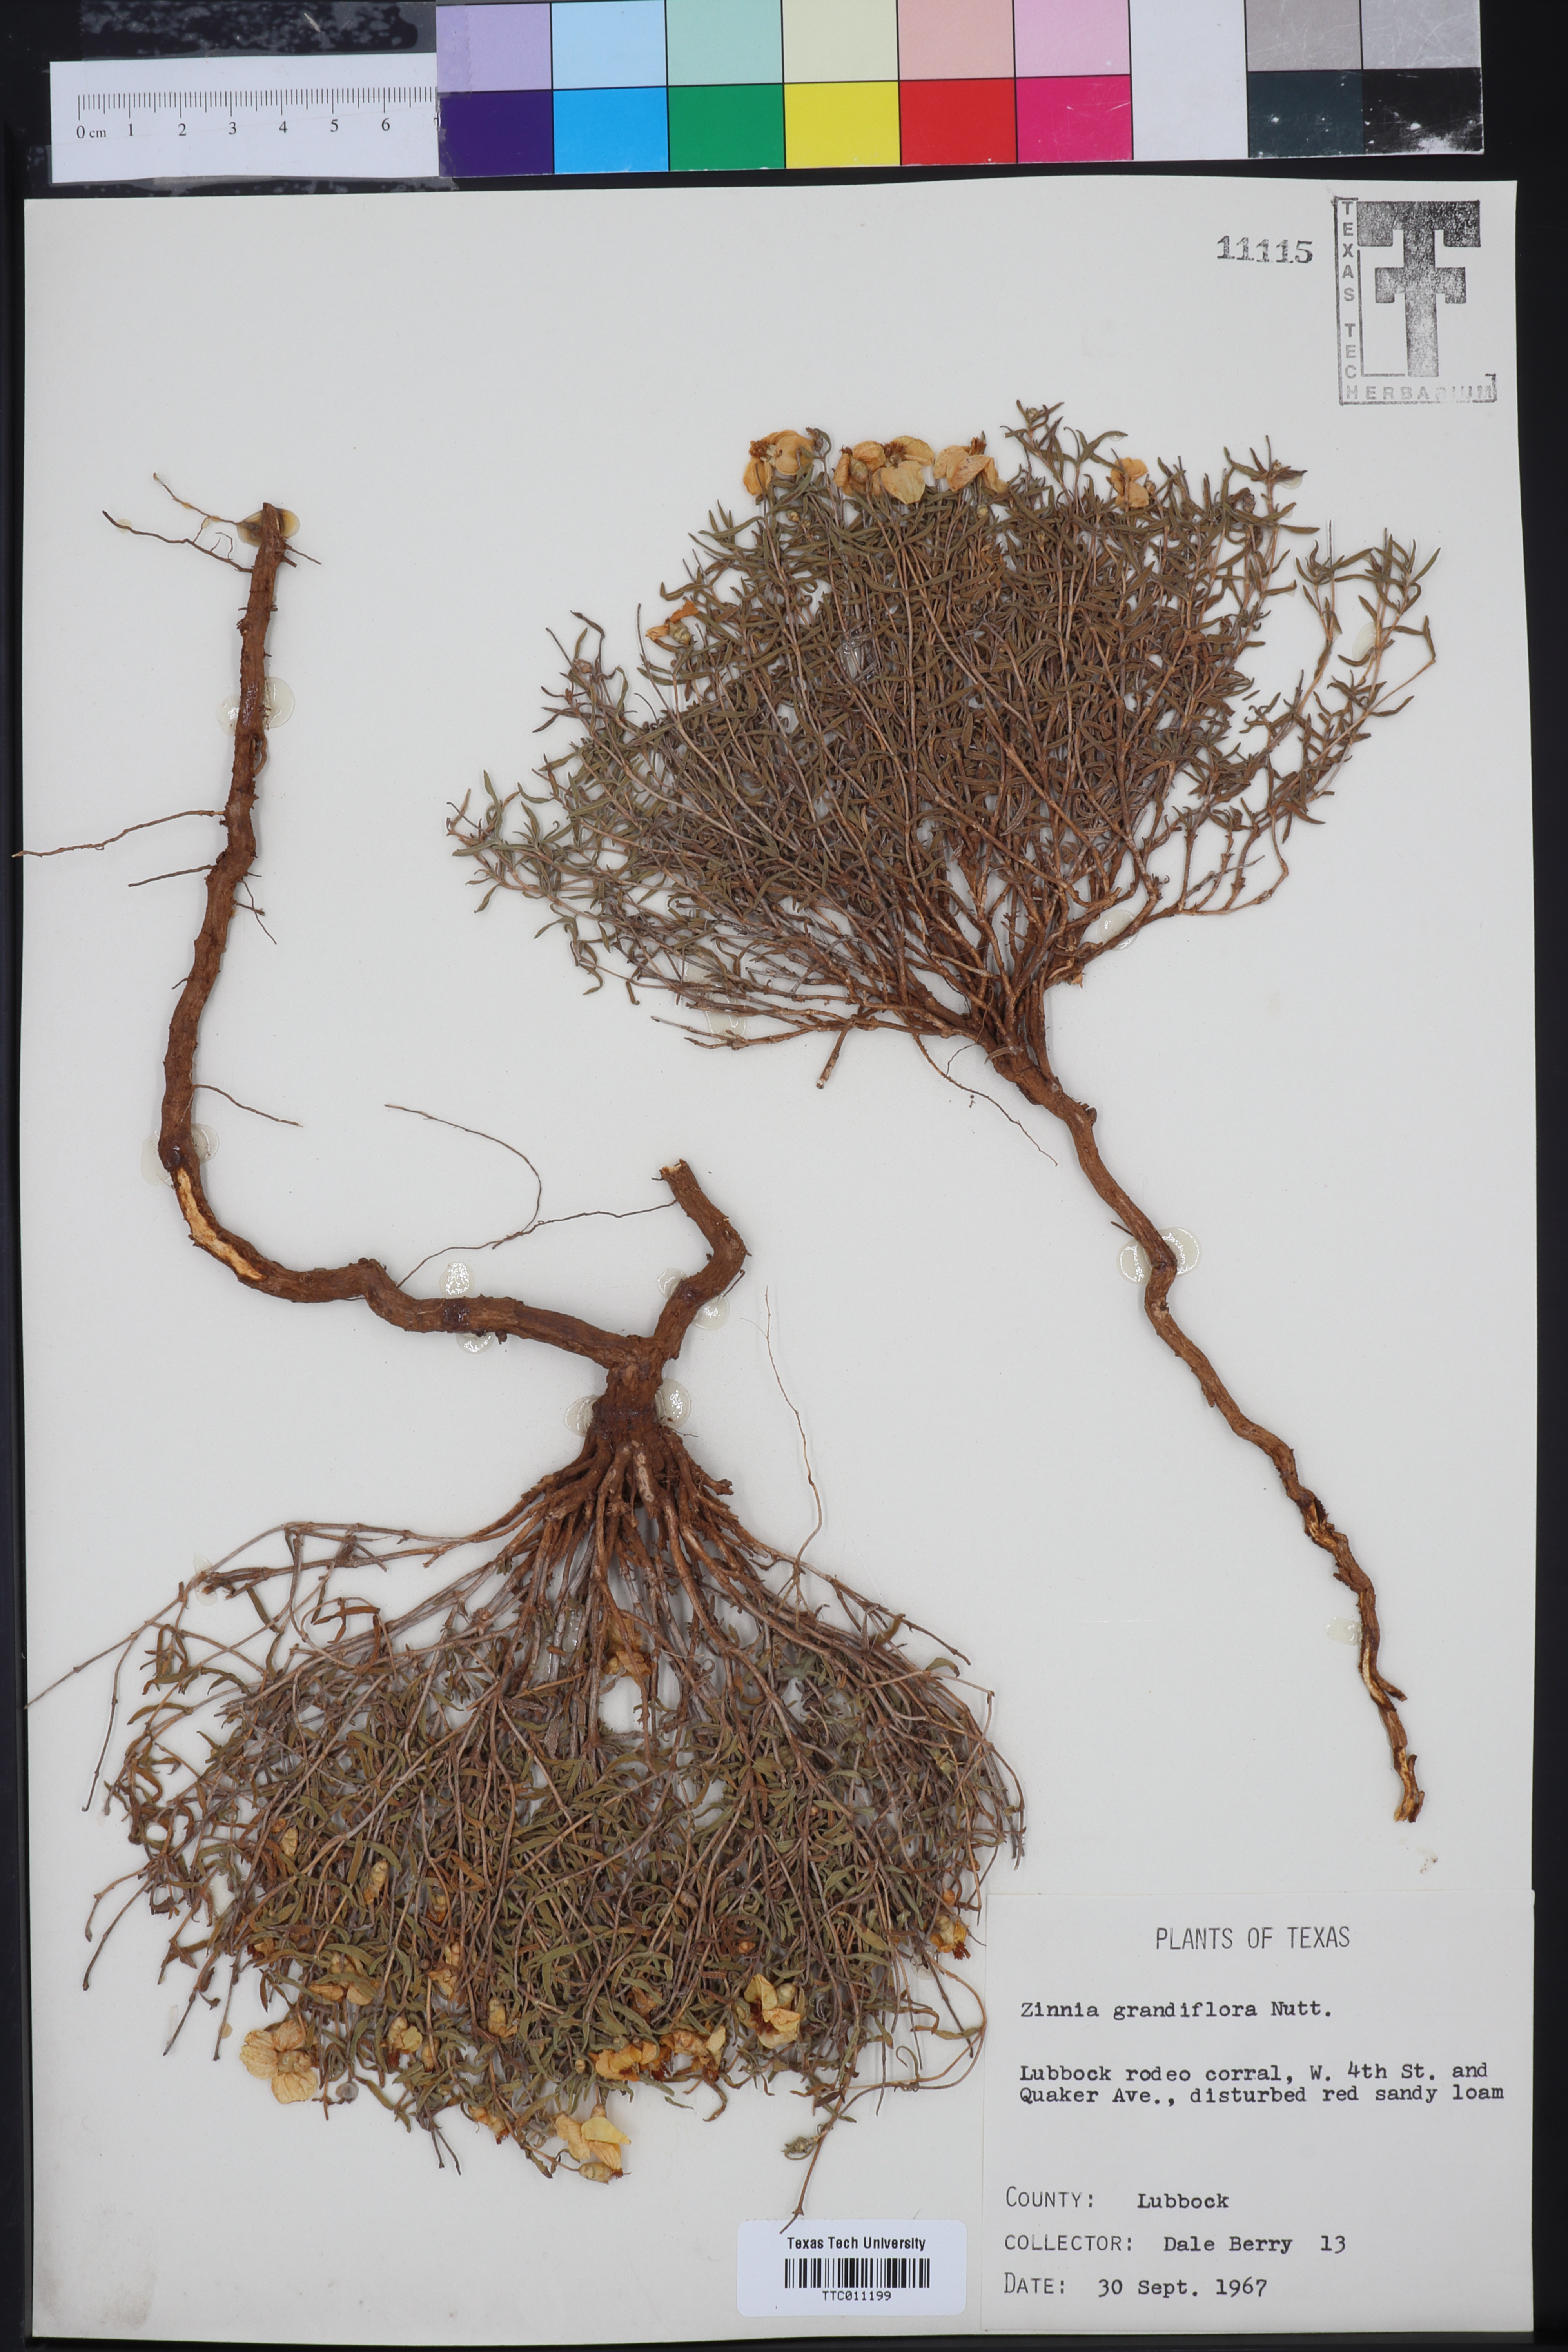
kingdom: Plantae
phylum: Tracheophyta
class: Magnoliopsida
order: Asterales
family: Asteraceae
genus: Zinnia
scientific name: Zinnia grandiflora
